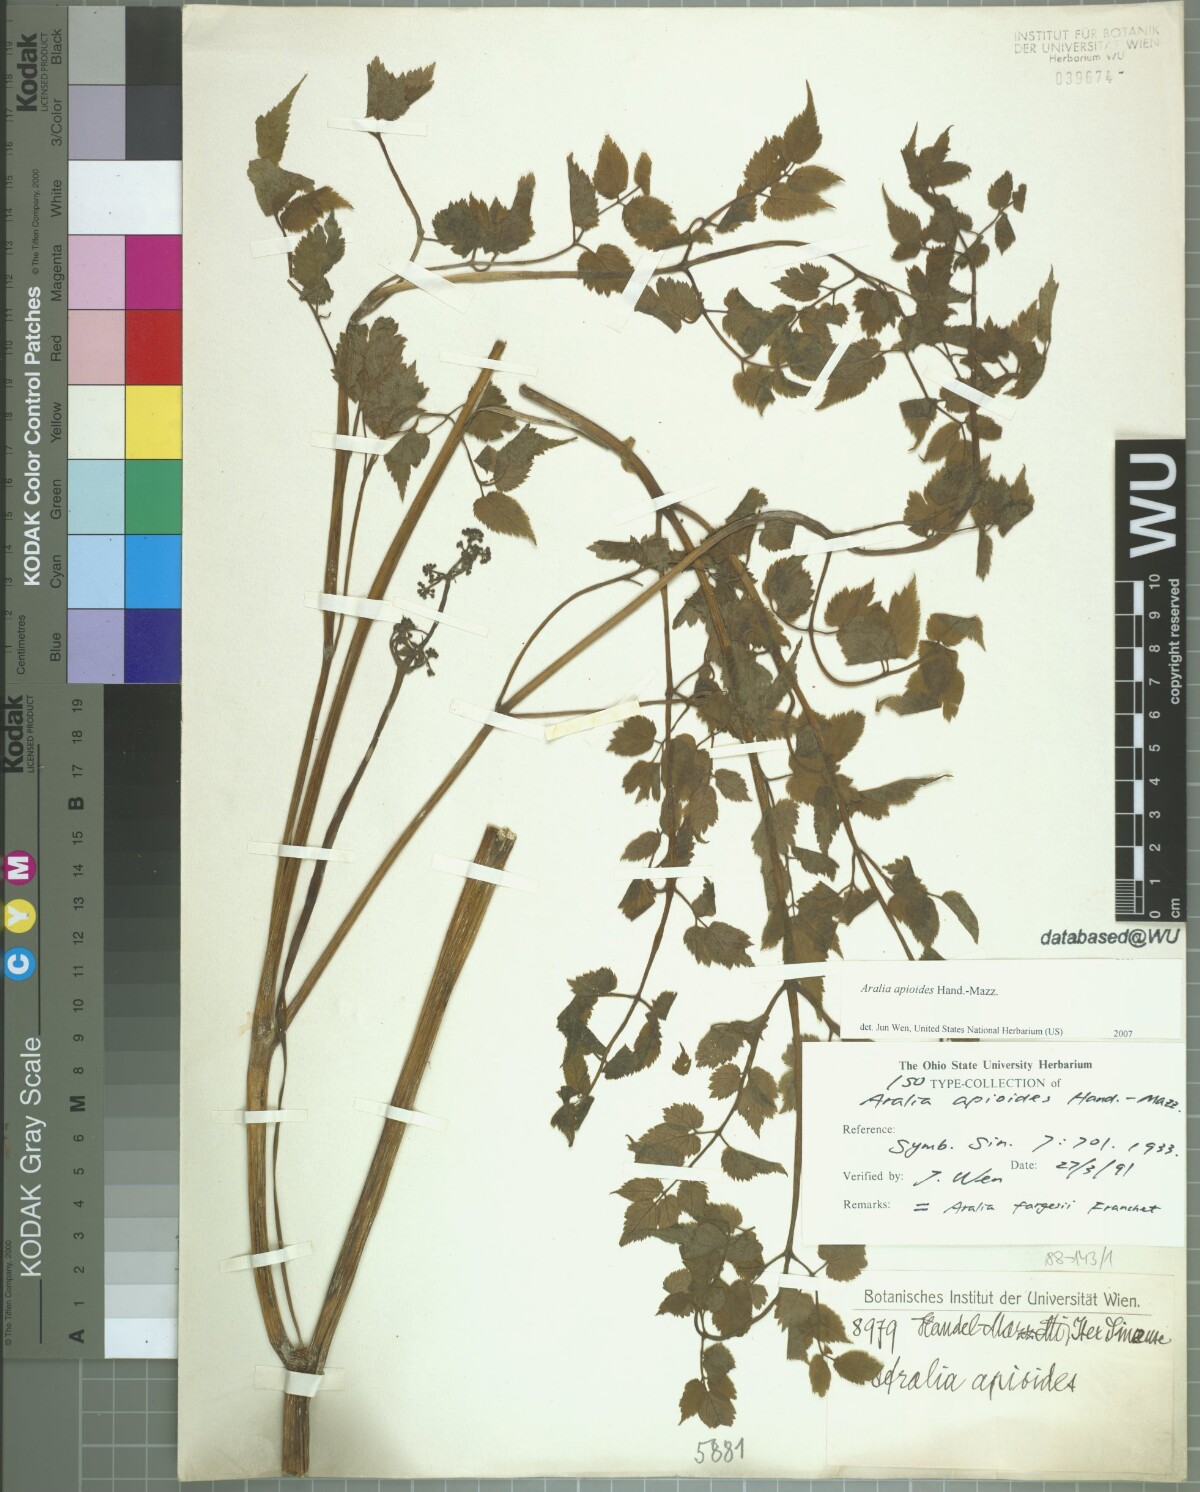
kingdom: Plantae
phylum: Tracheophyta
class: Magnoliopsida
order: Apiales
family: Araliaceae
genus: Aralia
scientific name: Aralia apioides
